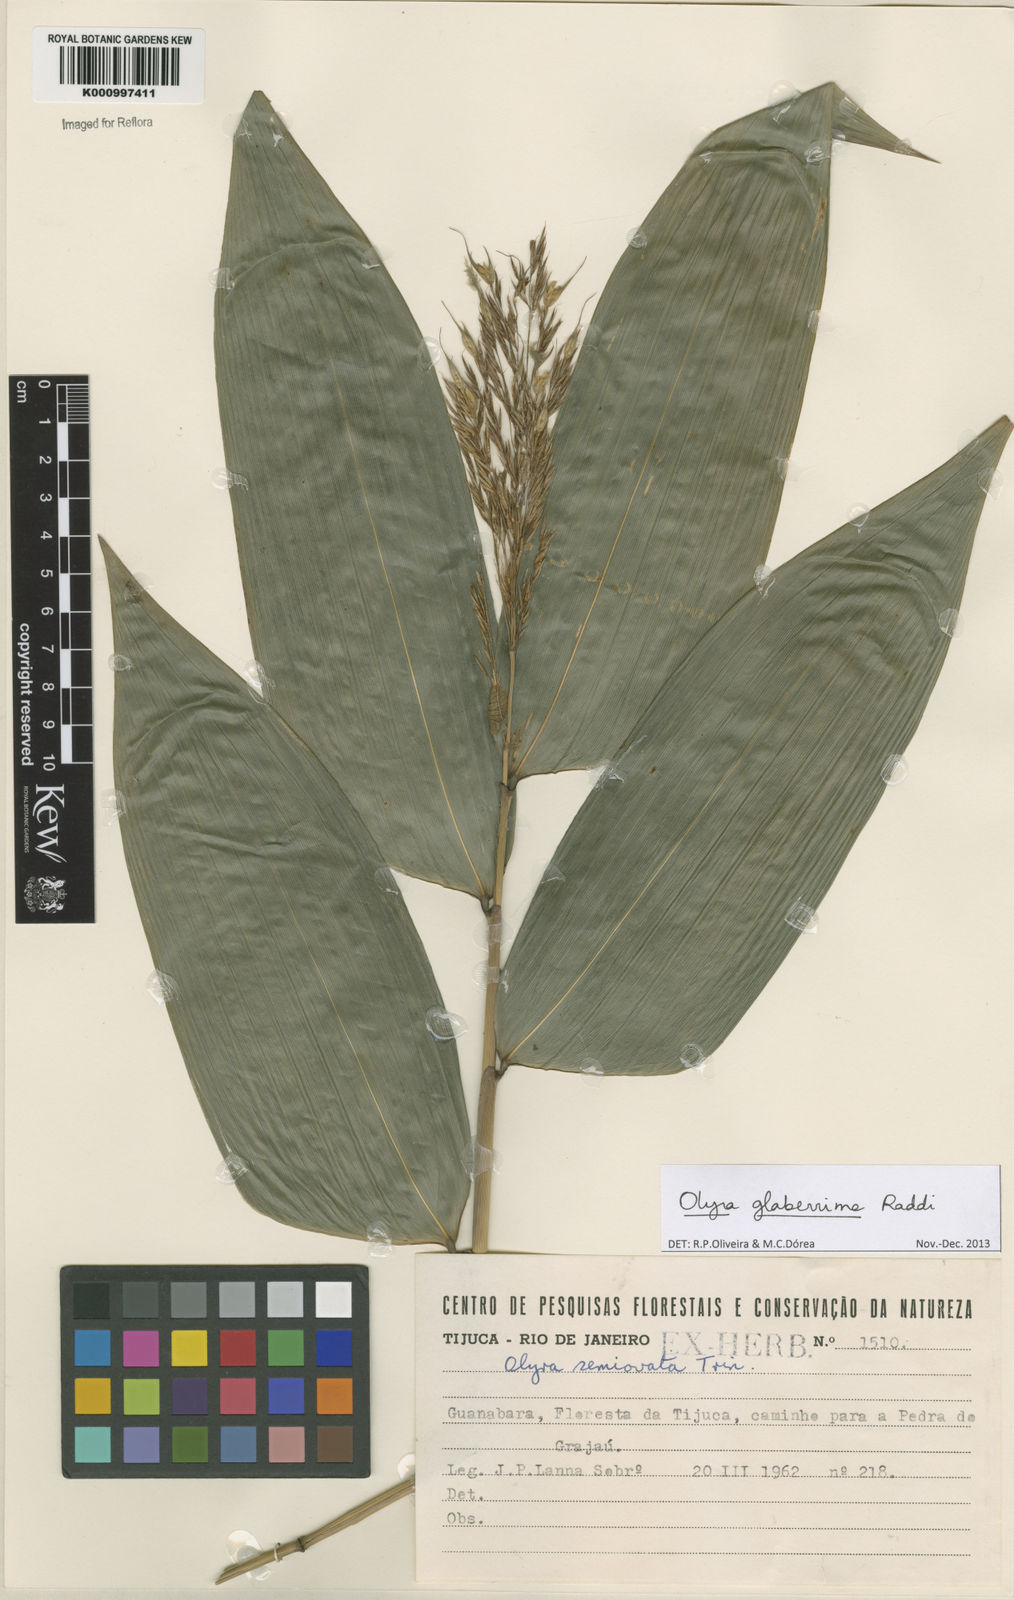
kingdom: Plantae
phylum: Tracheophyta
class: Liliopsida
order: Poales
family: Poaceae
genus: Olyra
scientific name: Olyra glaberrima
